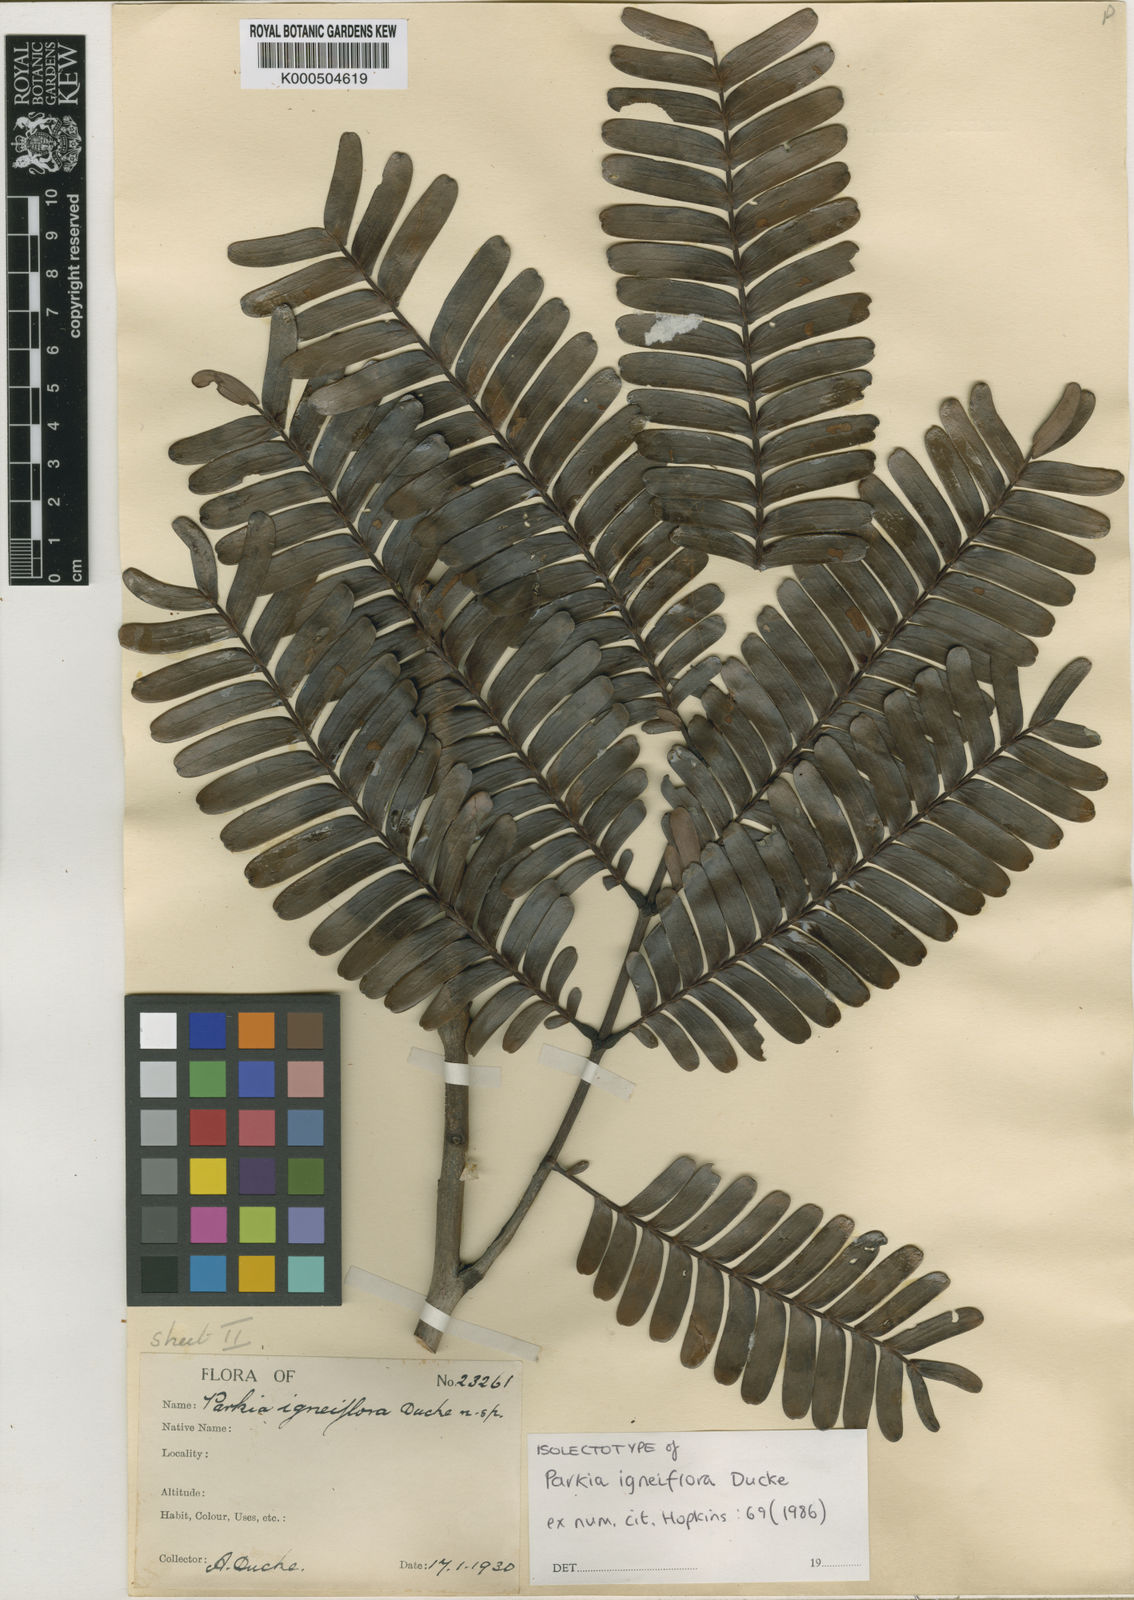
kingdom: Plantae
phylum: Tracheophyta
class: Magnoliopsida
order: Fabales
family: Fabaceae
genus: Parkia
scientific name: Parkia
